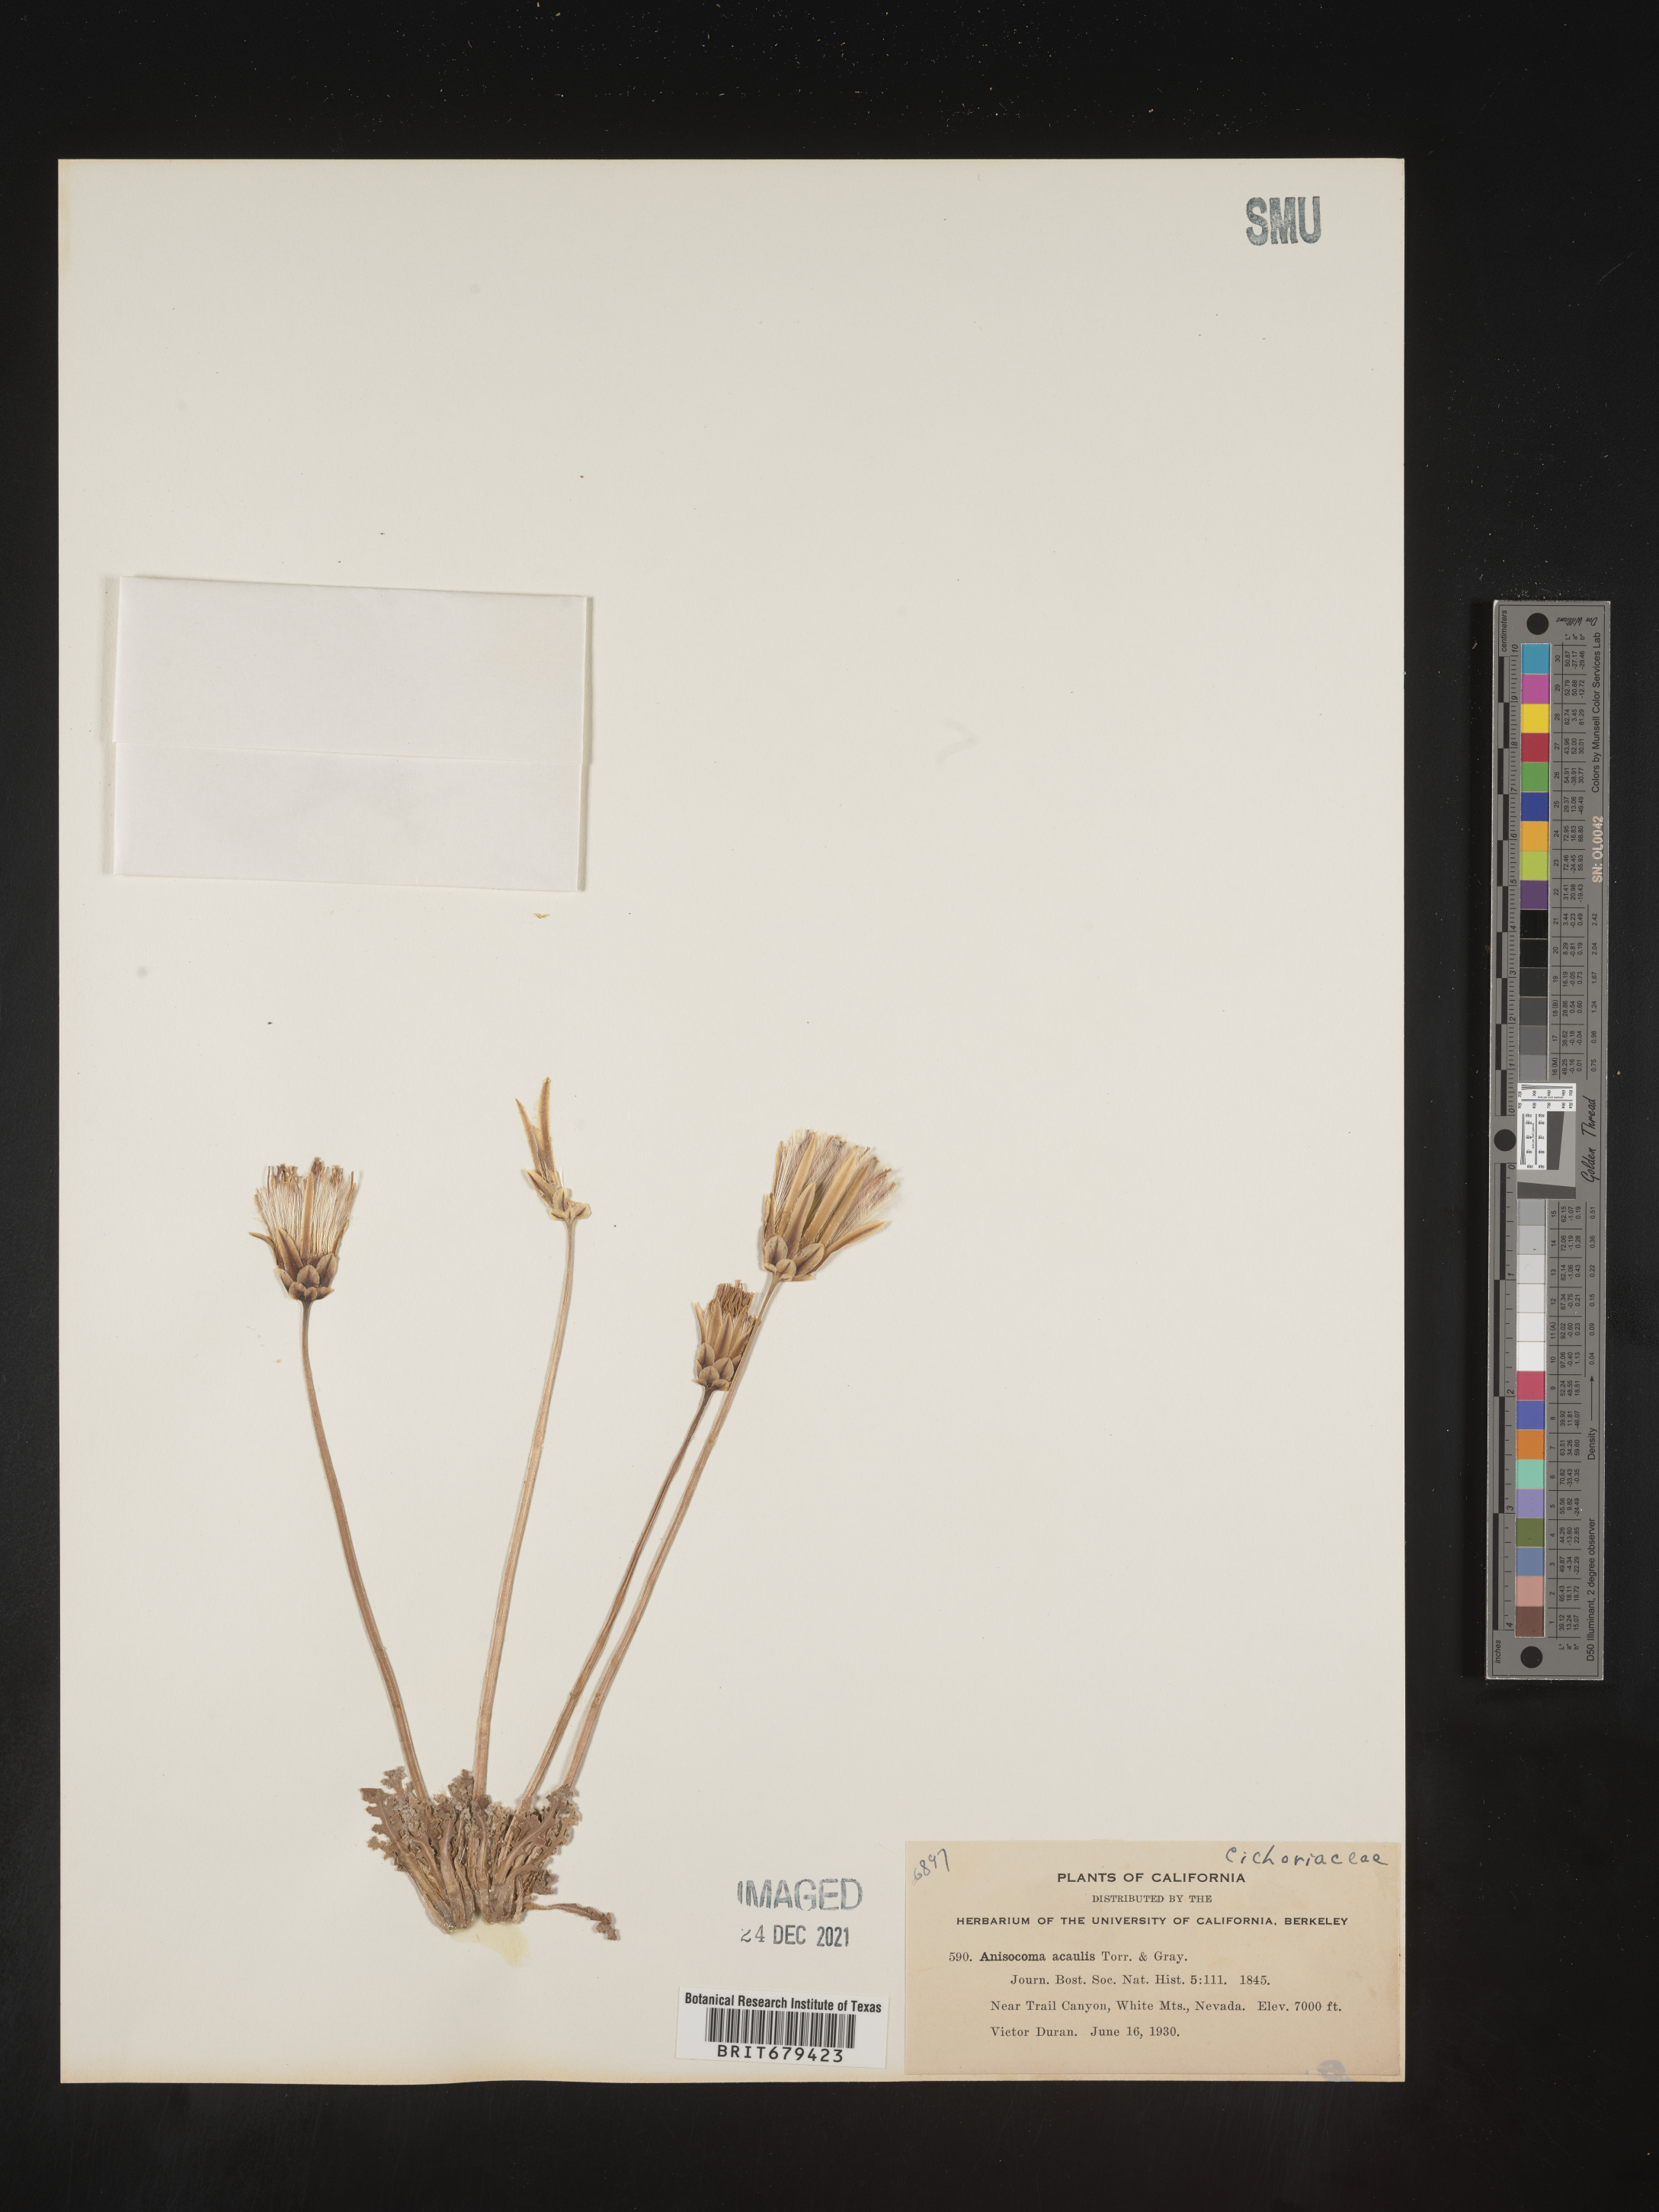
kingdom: Plantae
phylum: Tracheophyta
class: Magnoliopsida
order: Asterales
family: Asteraceae
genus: Anisocoma
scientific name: Anisocoma
